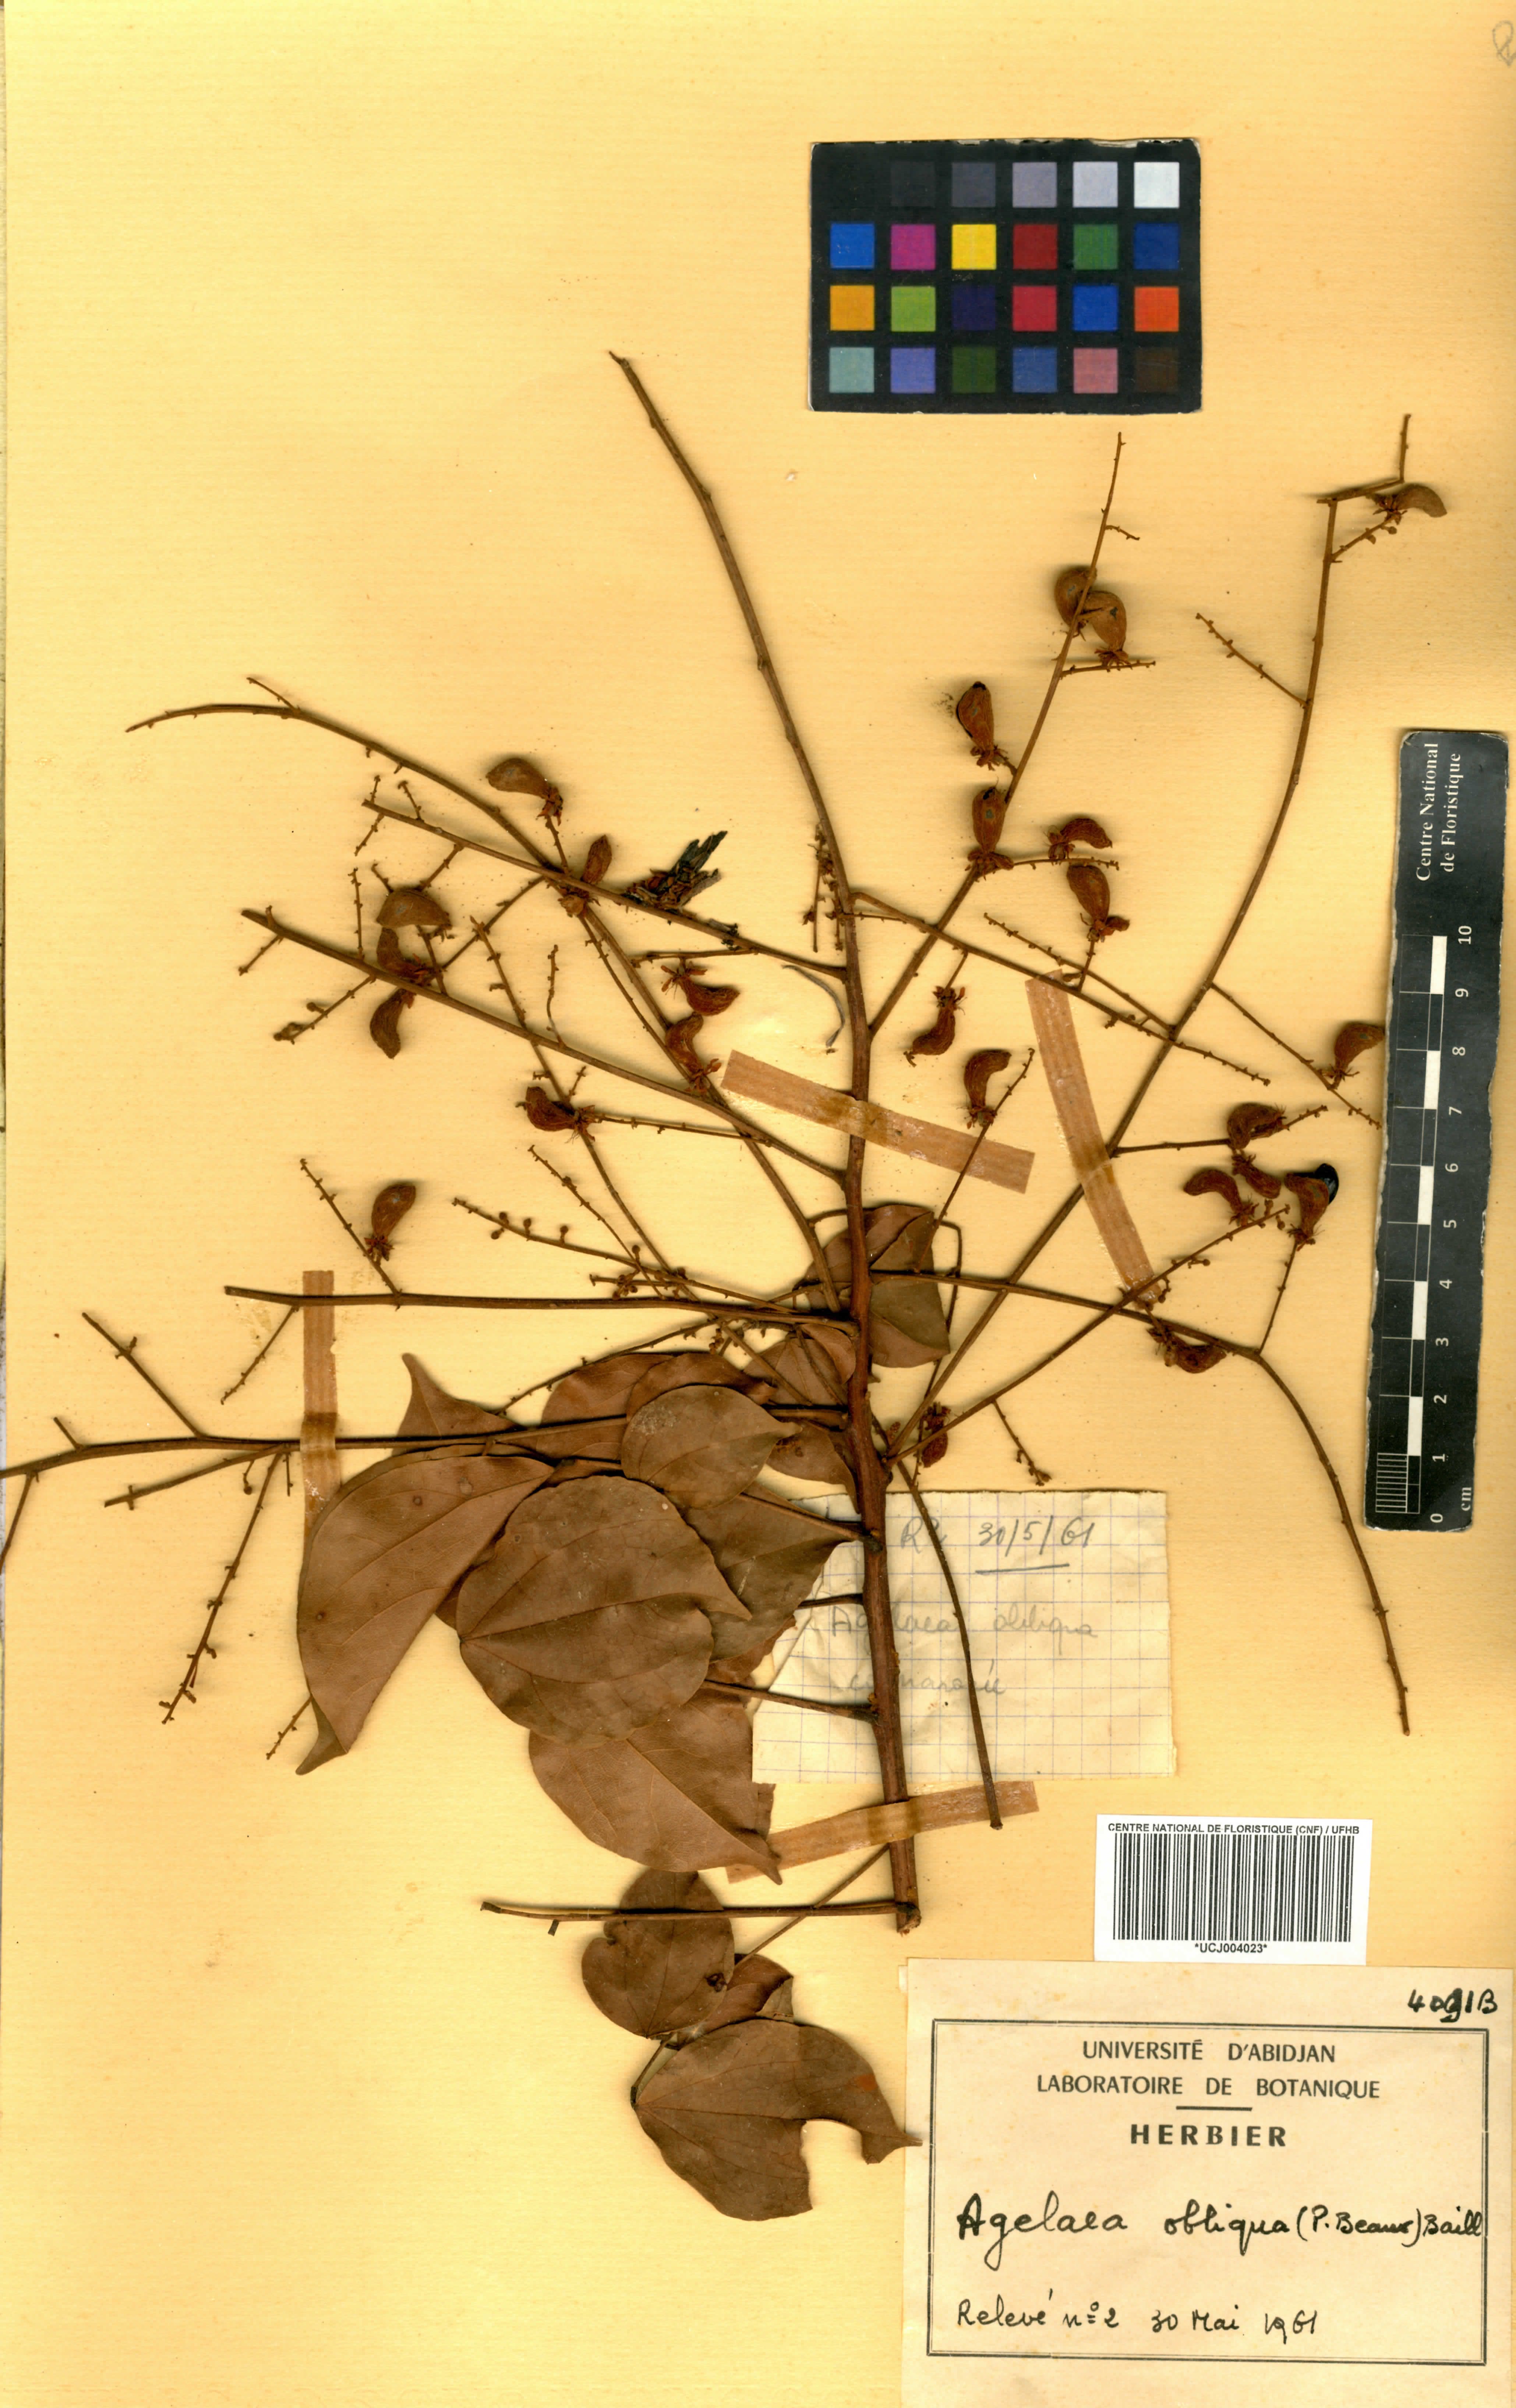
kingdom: Plantae
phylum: Tracheophyta
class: Magnoliopsida
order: Oxalidales
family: Connaraceae
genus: Agelaea
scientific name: Agelaea pentagyna
